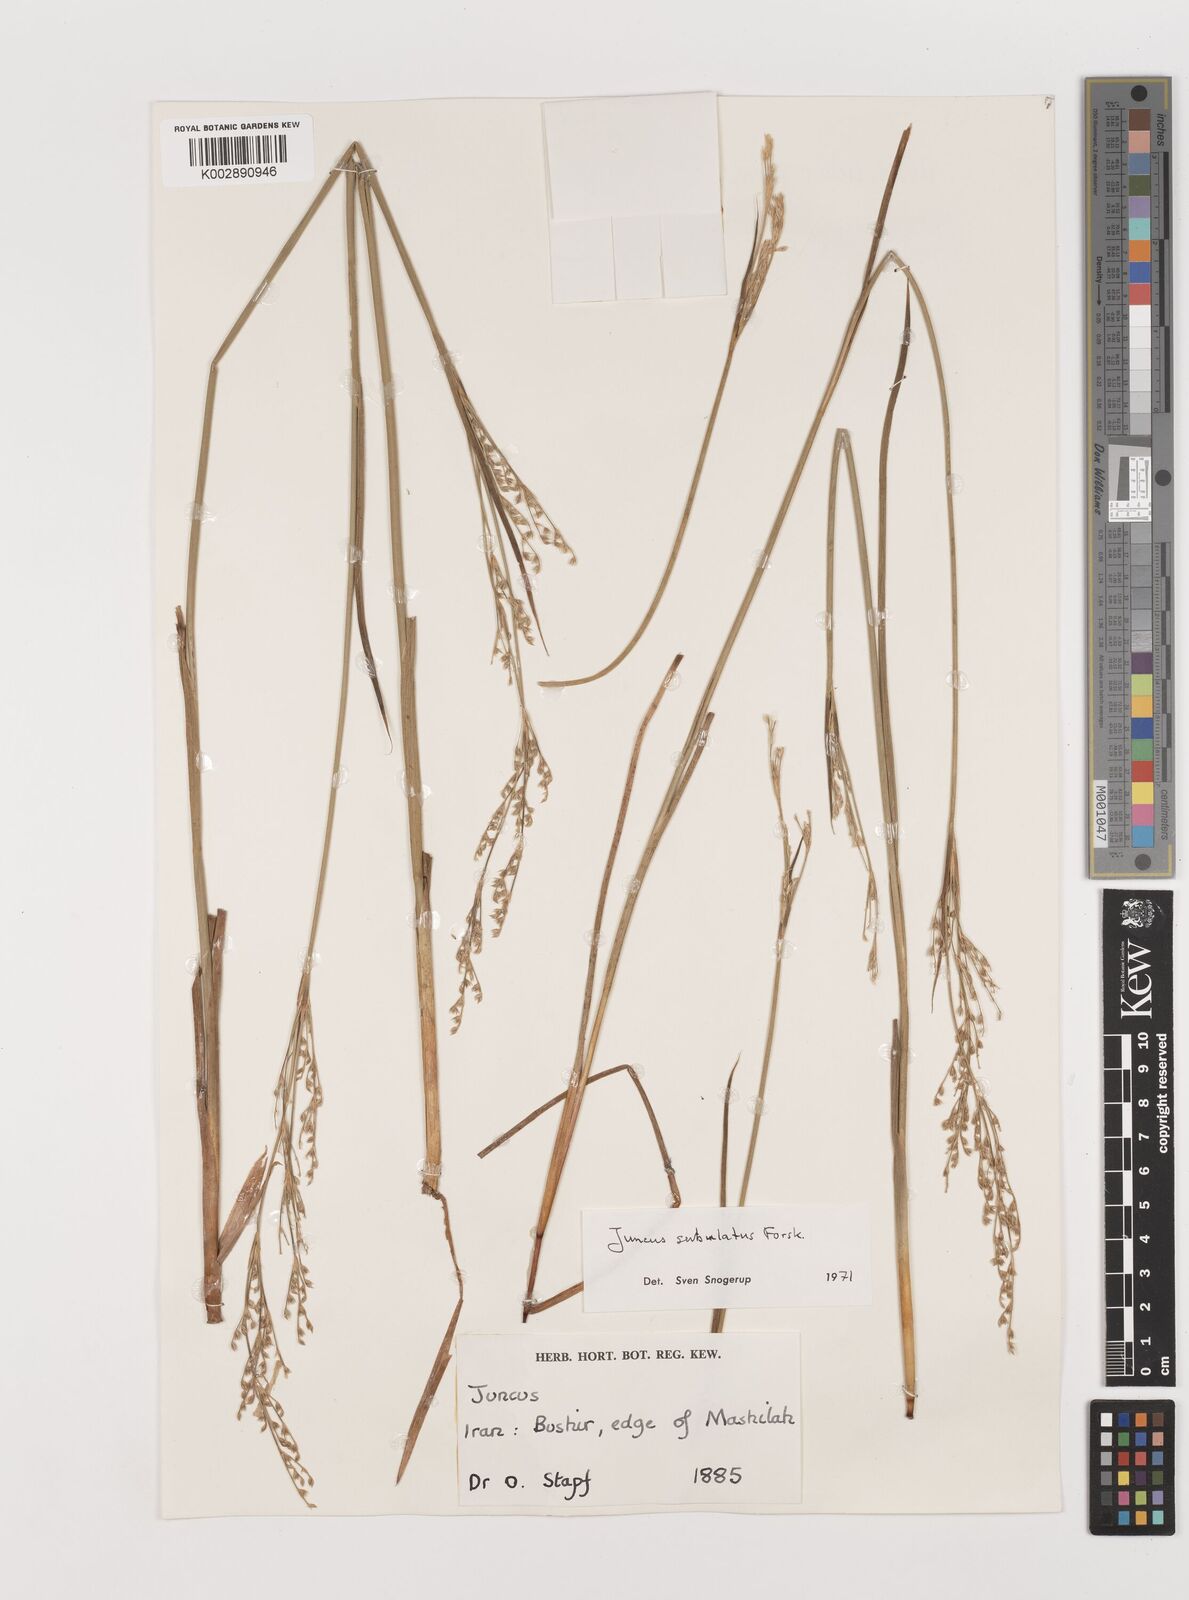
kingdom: Plantae
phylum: Tracheophyta
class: Liliopsida
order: Poales
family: Juncaceae
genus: Juncus
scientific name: Juncus subulatus
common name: Somerset rush
